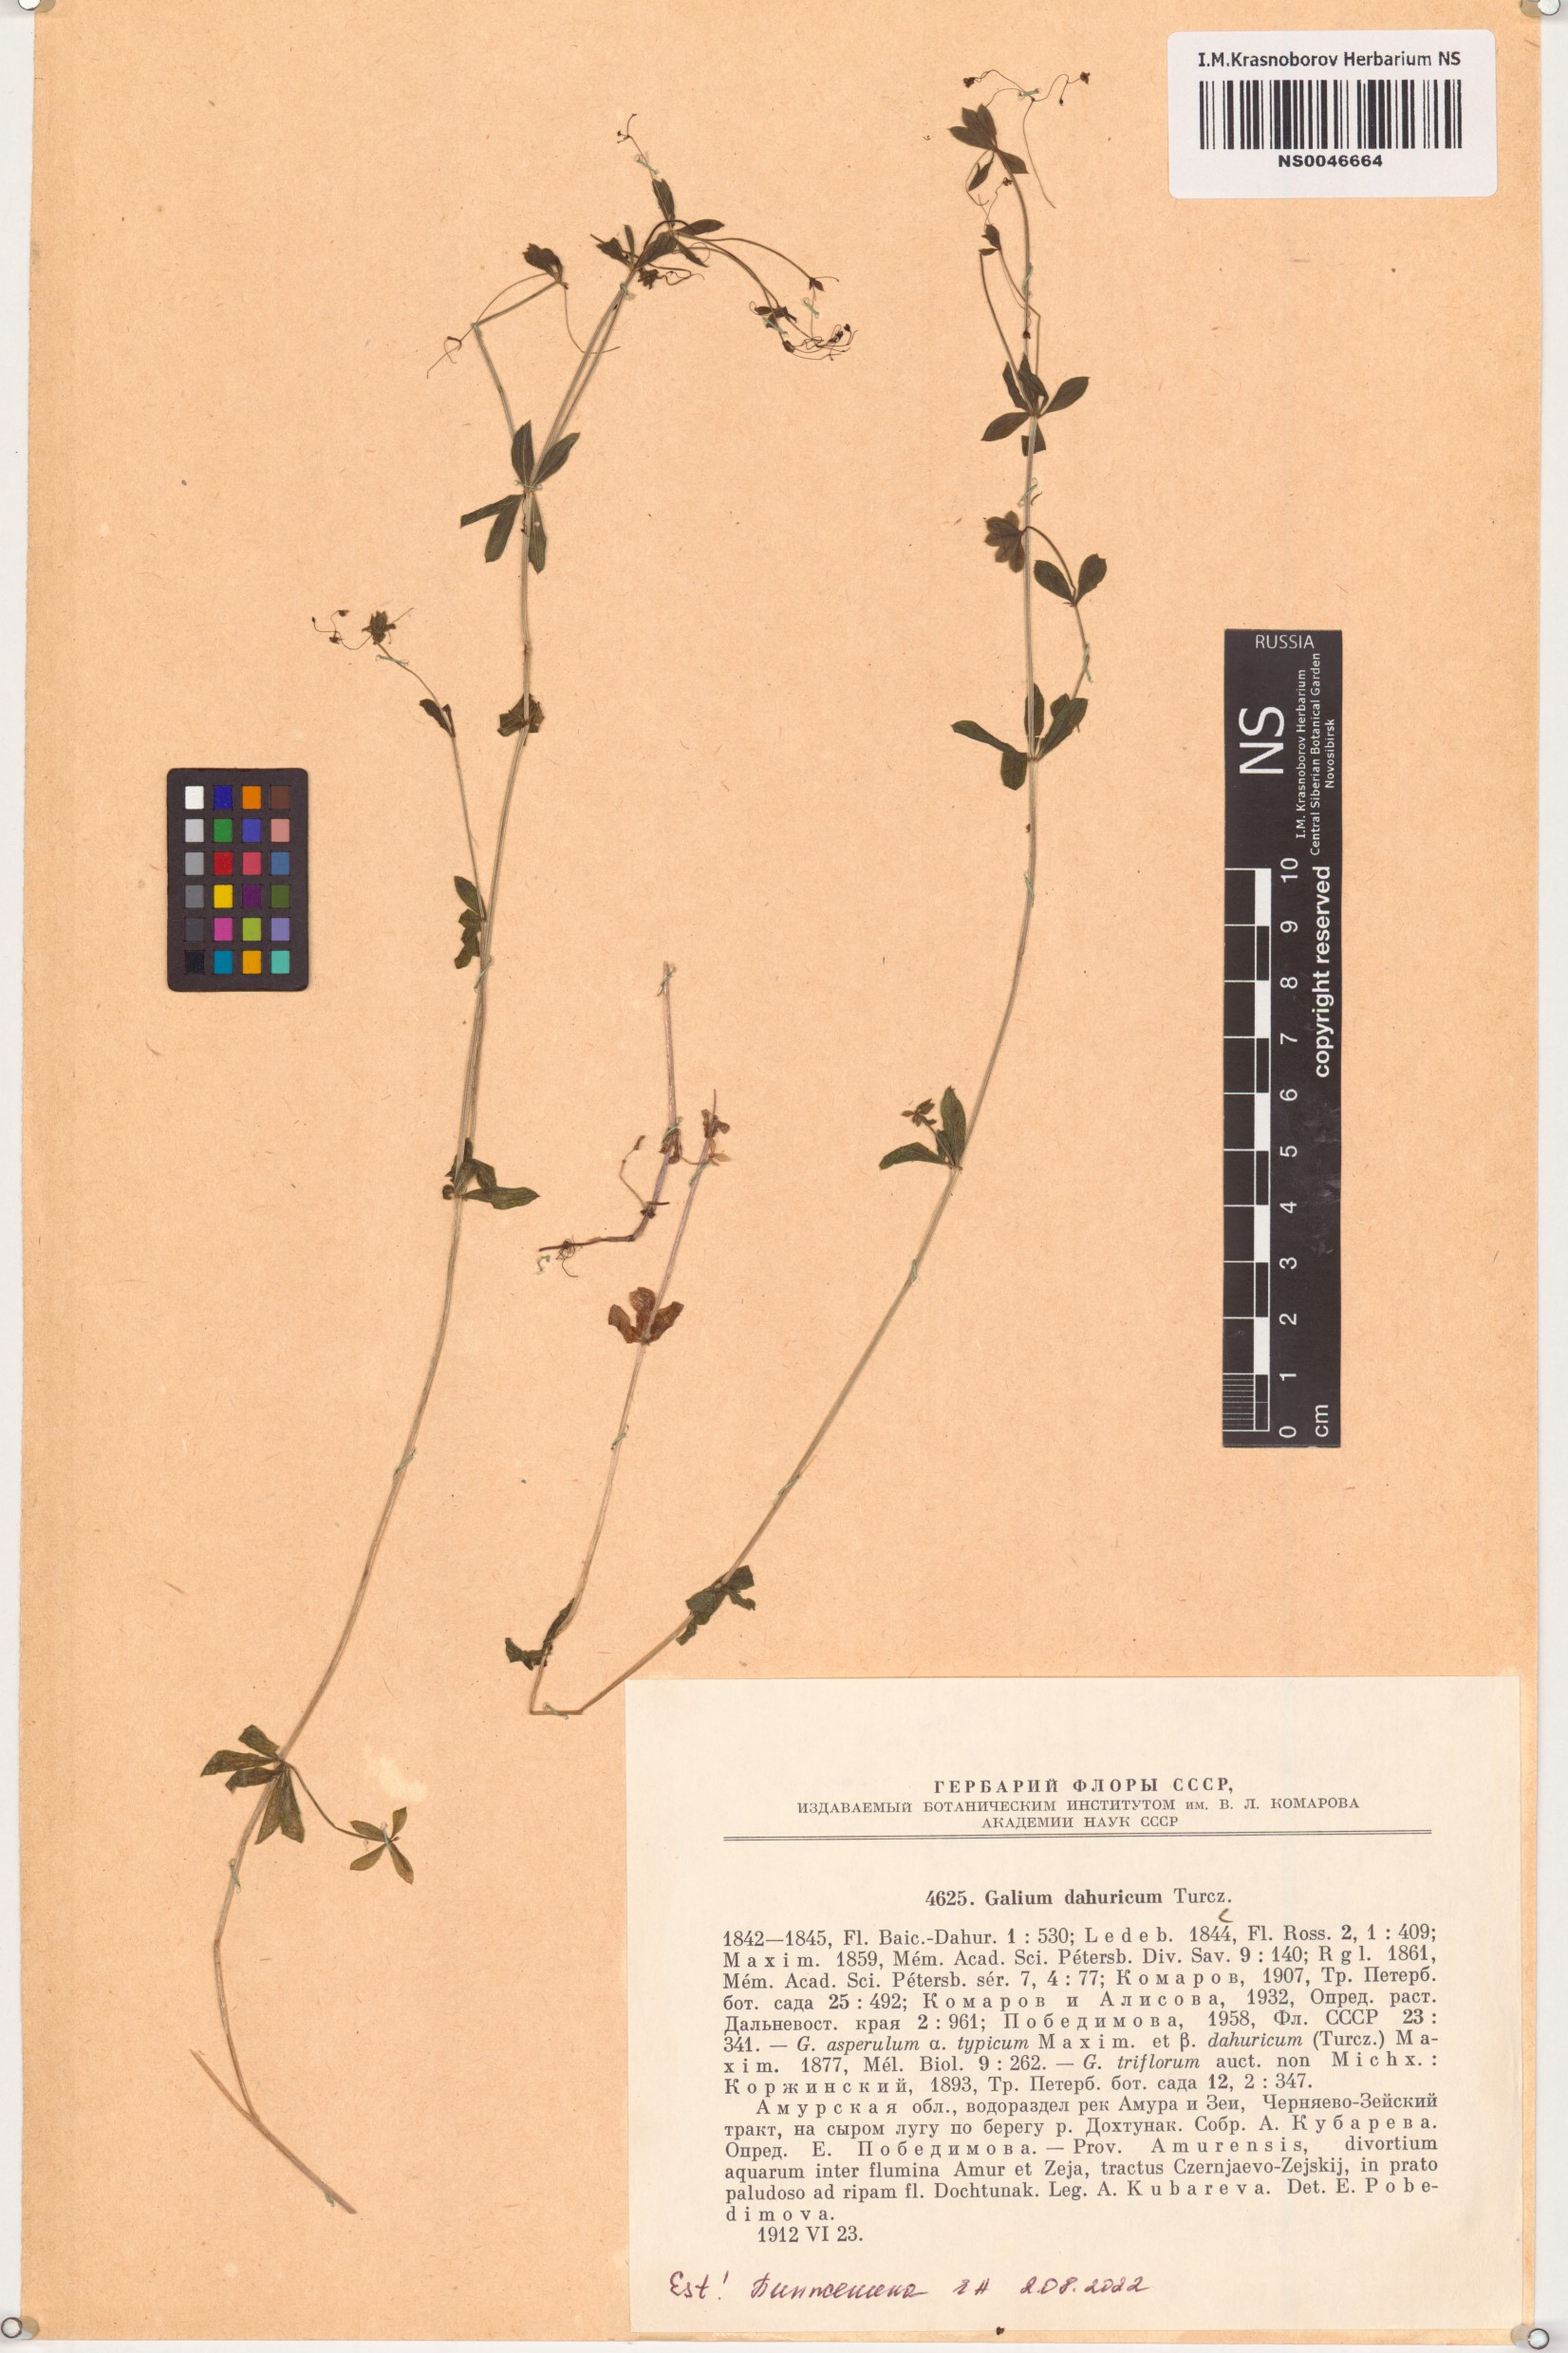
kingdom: Plantae
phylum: Tracheophyta
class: Magnoliopsida
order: Gentianales
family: Rubiaceae
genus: Galium
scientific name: Galium dahuricum
